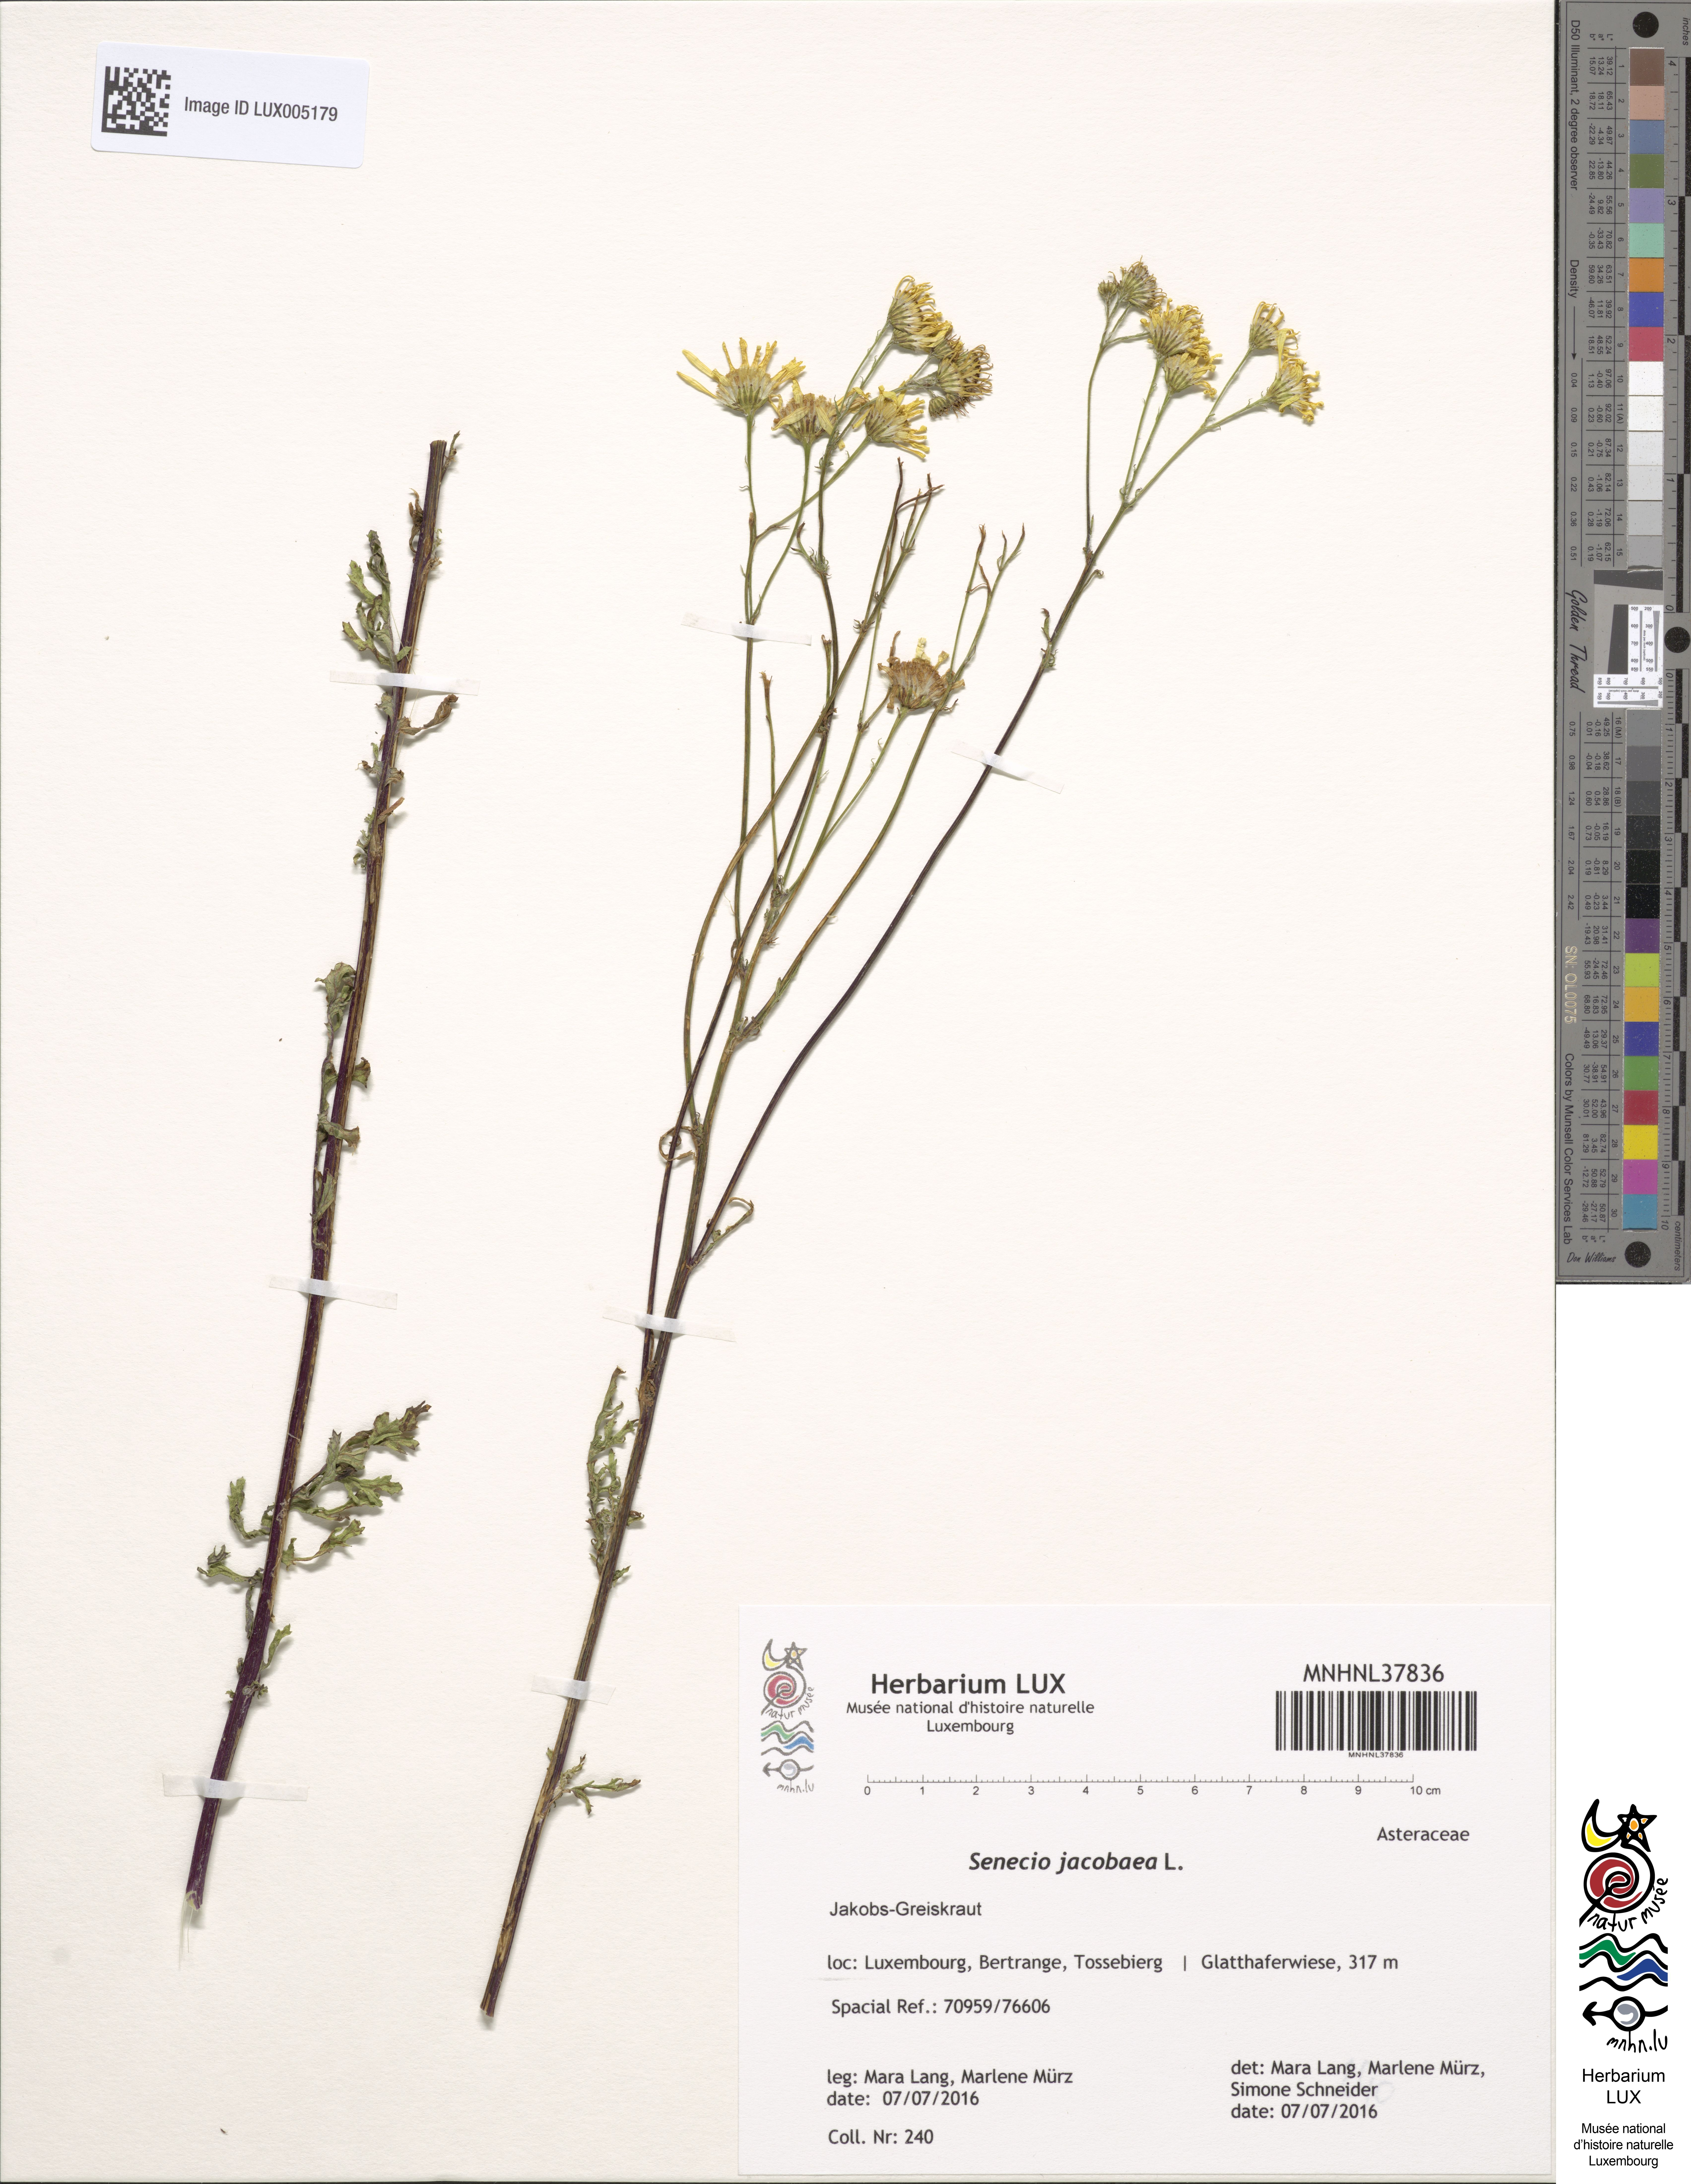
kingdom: Plantae
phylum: Tracheophyta
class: Magnoliopsida
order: Asterales
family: Asteraceae
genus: Jacobaea
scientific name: Jacobaea vulgaris
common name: Stinking willie
